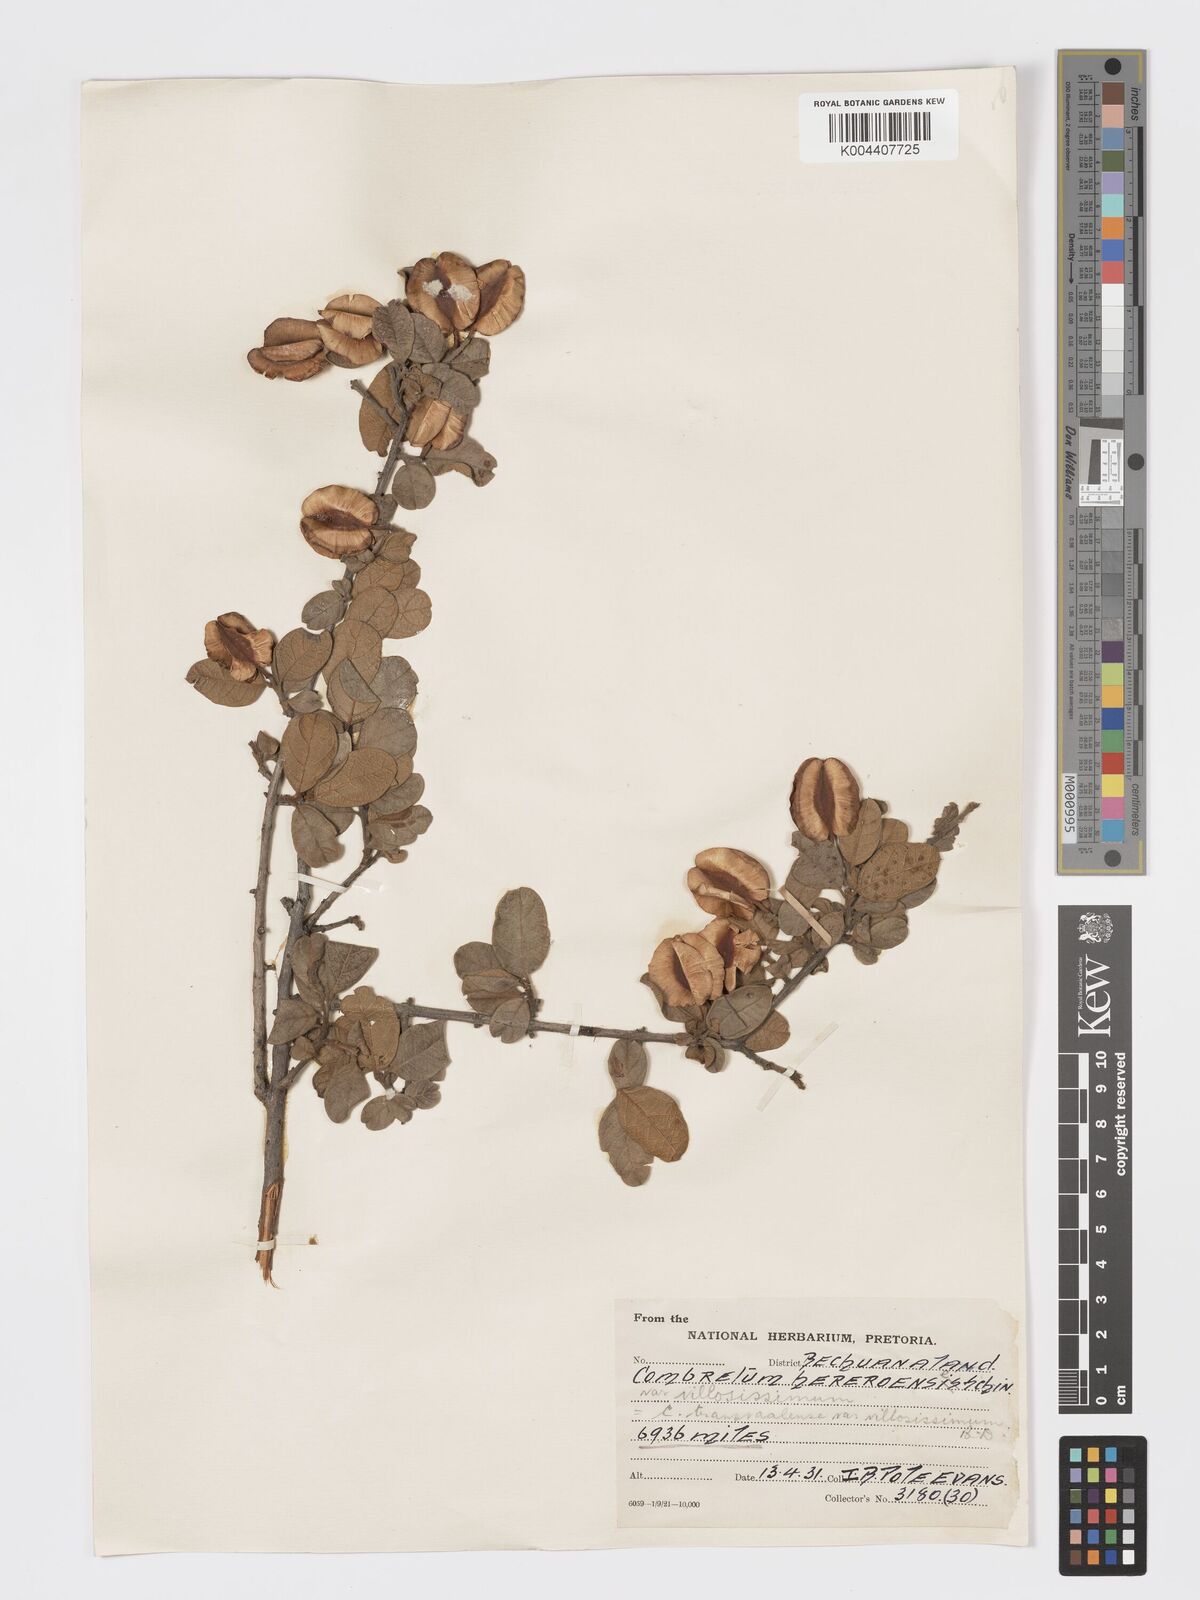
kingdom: Plantae
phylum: Tracheophyta
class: Magnoliopsida
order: Myrtales
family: Combretaceae
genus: Combretum
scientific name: Combretum hereroense
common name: Russet bushwillow
